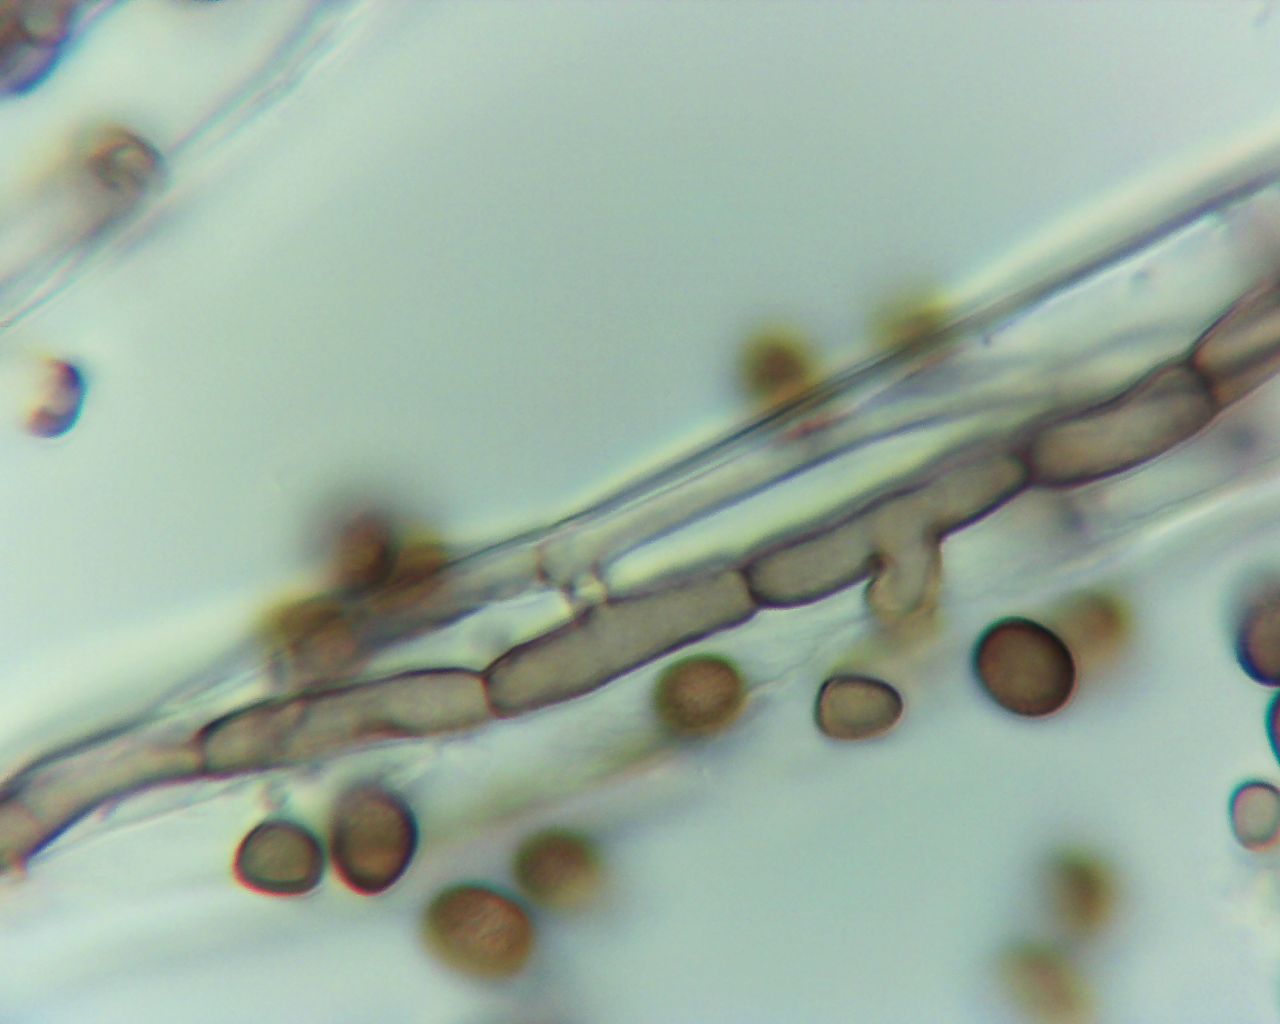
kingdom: Fungi
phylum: Ascomycota
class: Eurotiomycetes
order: Chaetothyriales
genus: Xylohypha
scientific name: Xylohypha ferruginosa
